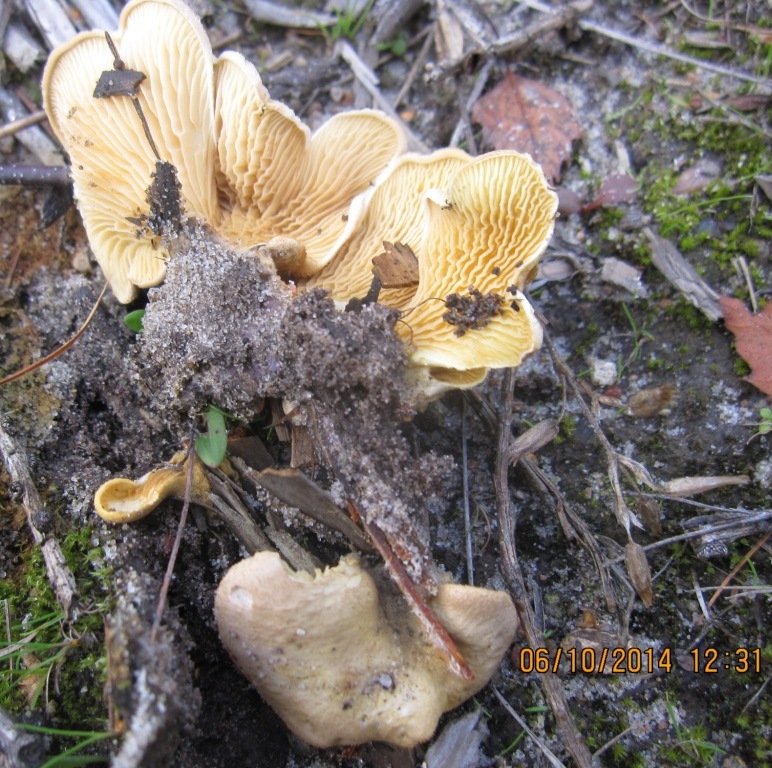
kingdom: Fungi
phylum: Basidiomycota
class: Agaricomycetes
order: Boletales
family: Tapinellaceae
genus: Tapinella
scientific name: Tapinella panuoides
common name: tømmer-viftesvamp
